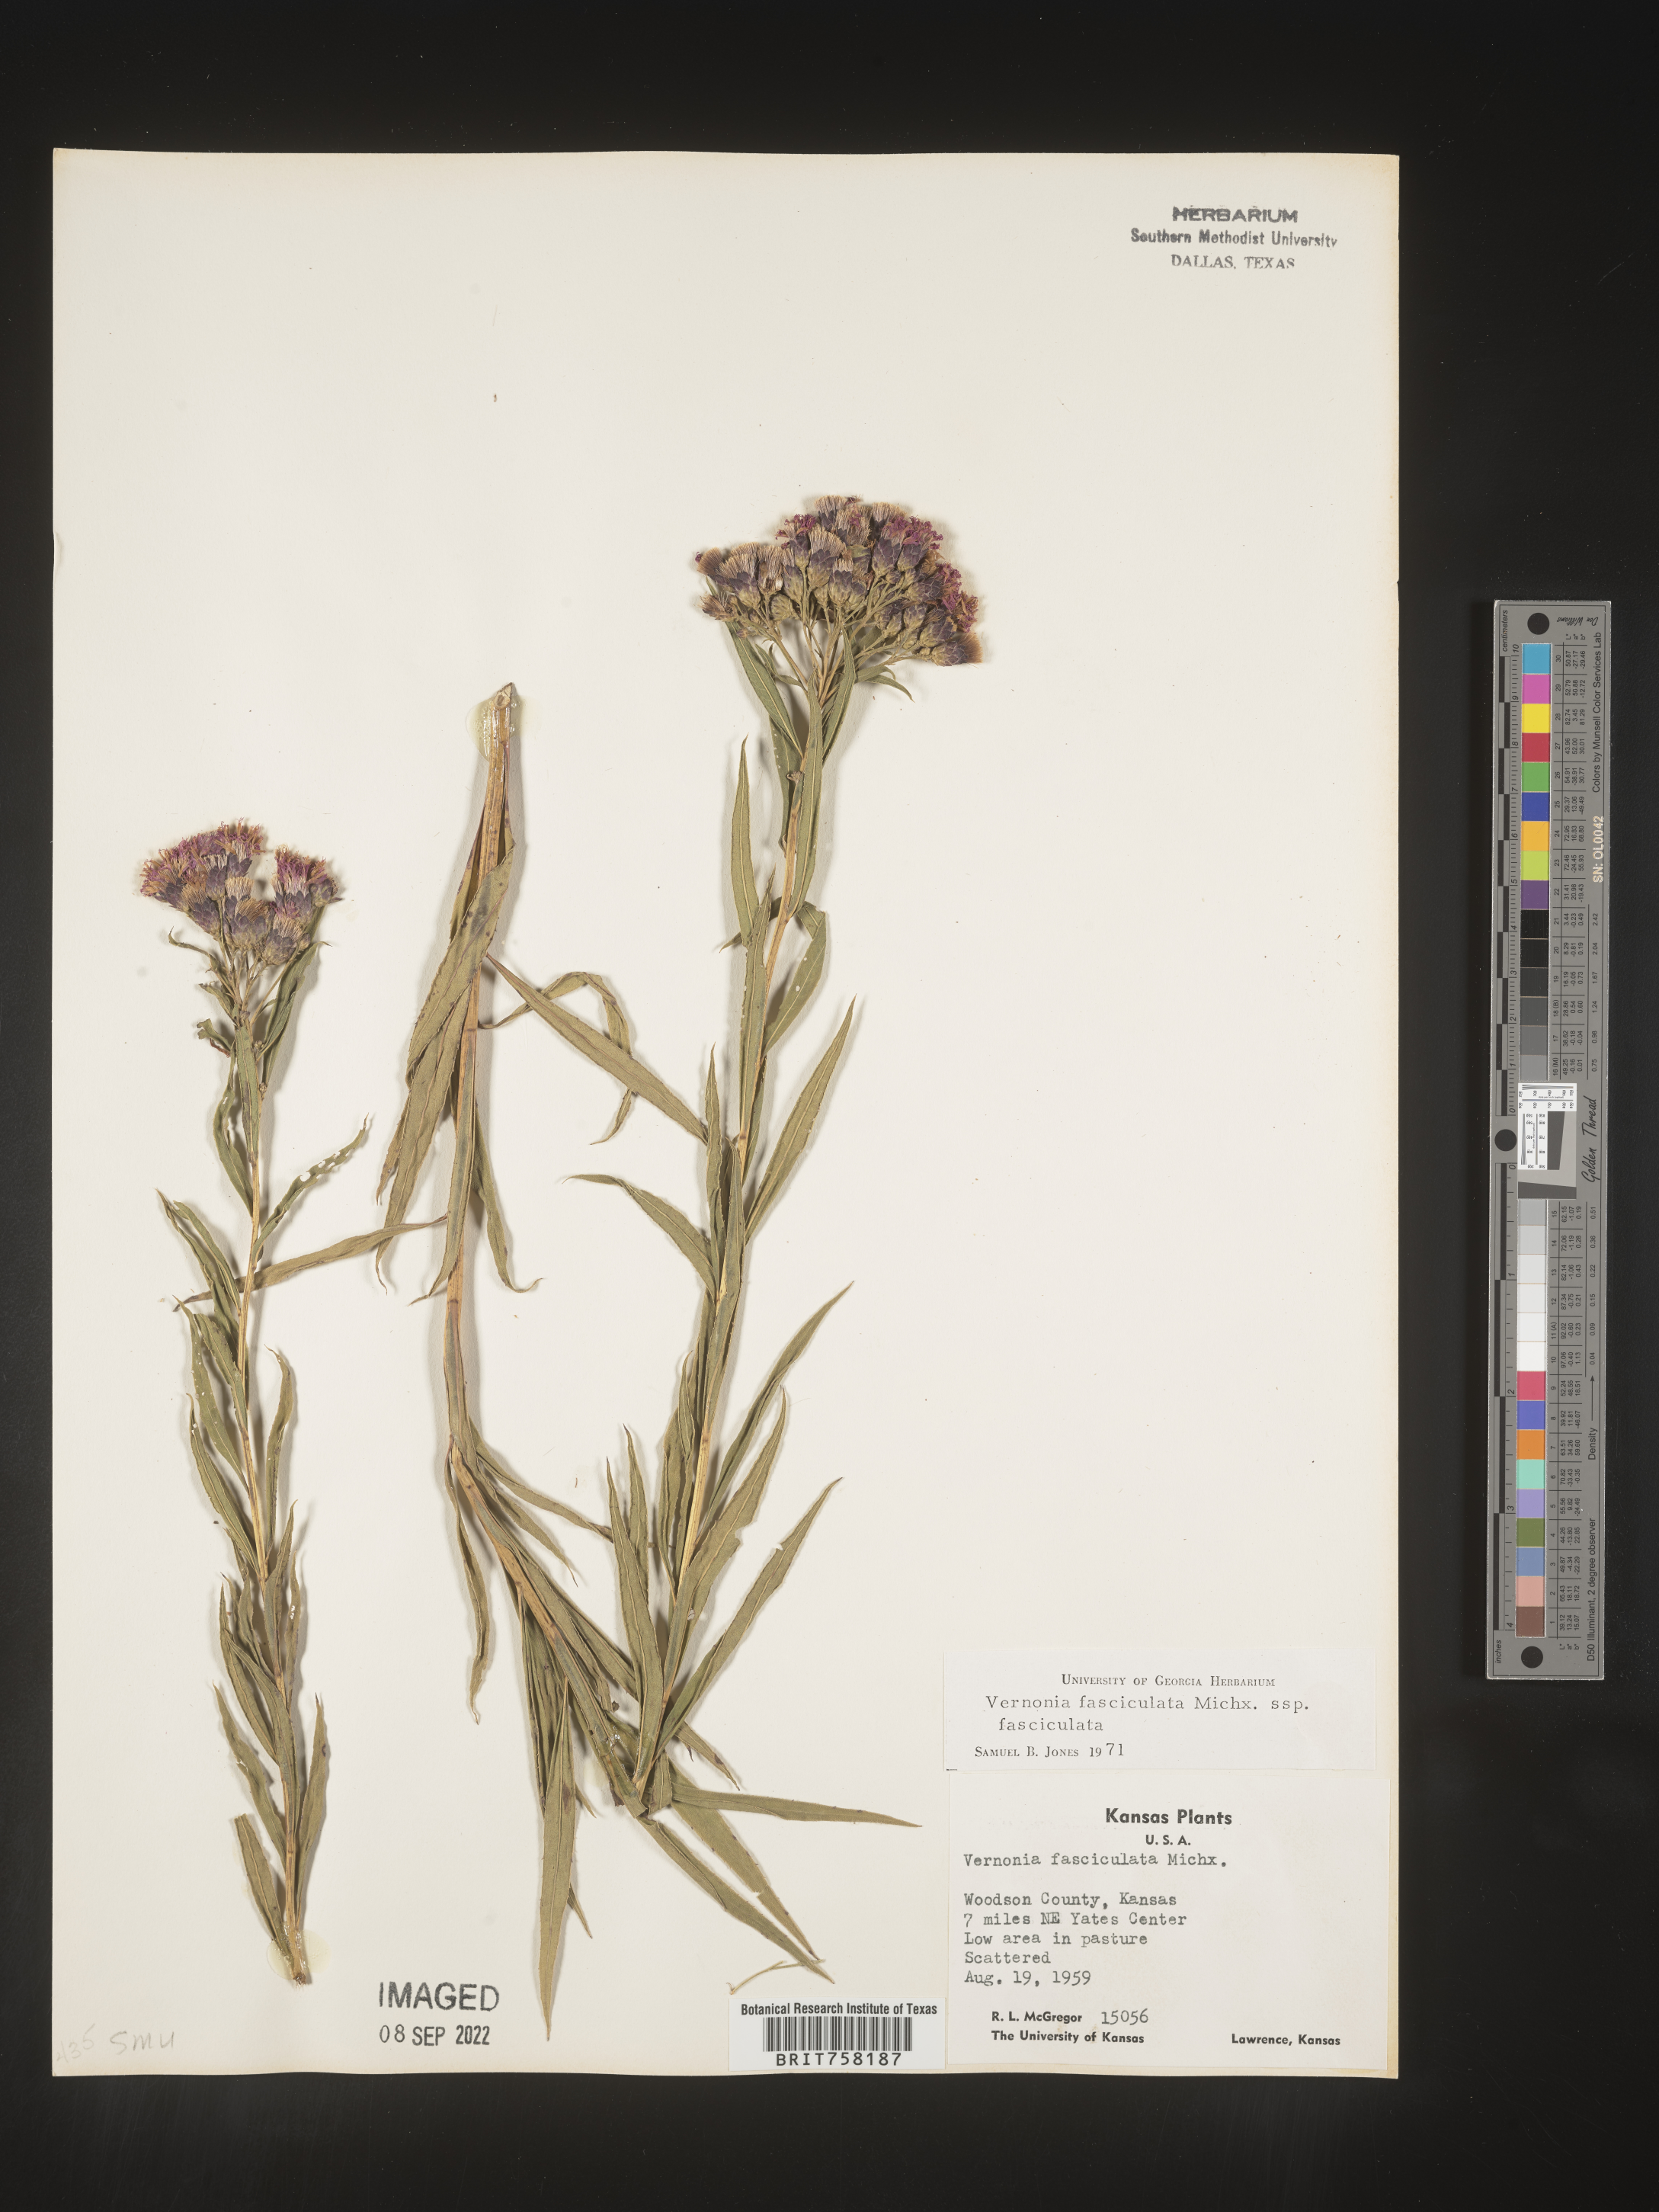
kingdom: Plantae
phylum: Tracheophyta
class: Magnoliopsida
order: Asterales
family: Asteraceae
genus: Vernonia
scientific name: Vernonia fasciculata
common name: Fascicled ironweed
